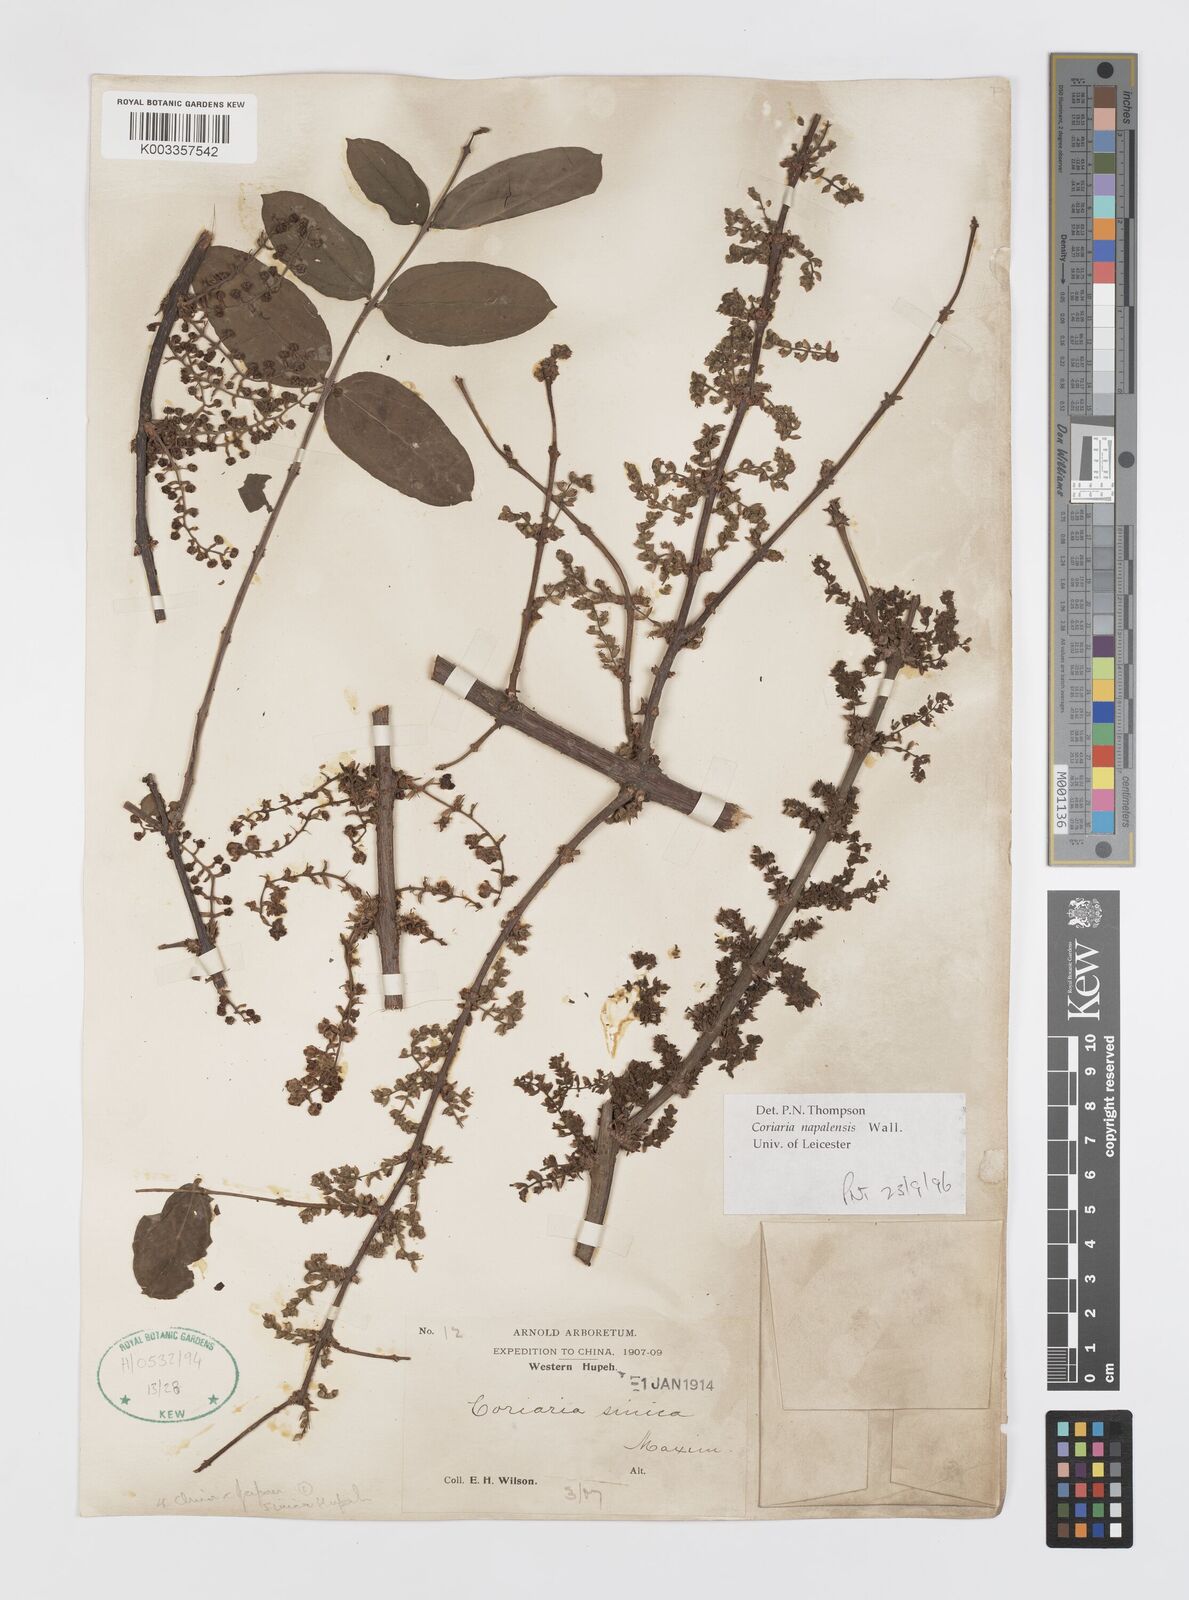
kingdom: Plantae
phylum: Tracheophyta
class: Magnoliopsida
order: Cucurbitales
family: Coriariaceae
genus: Coriaria
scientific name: Coriaria napalensis
